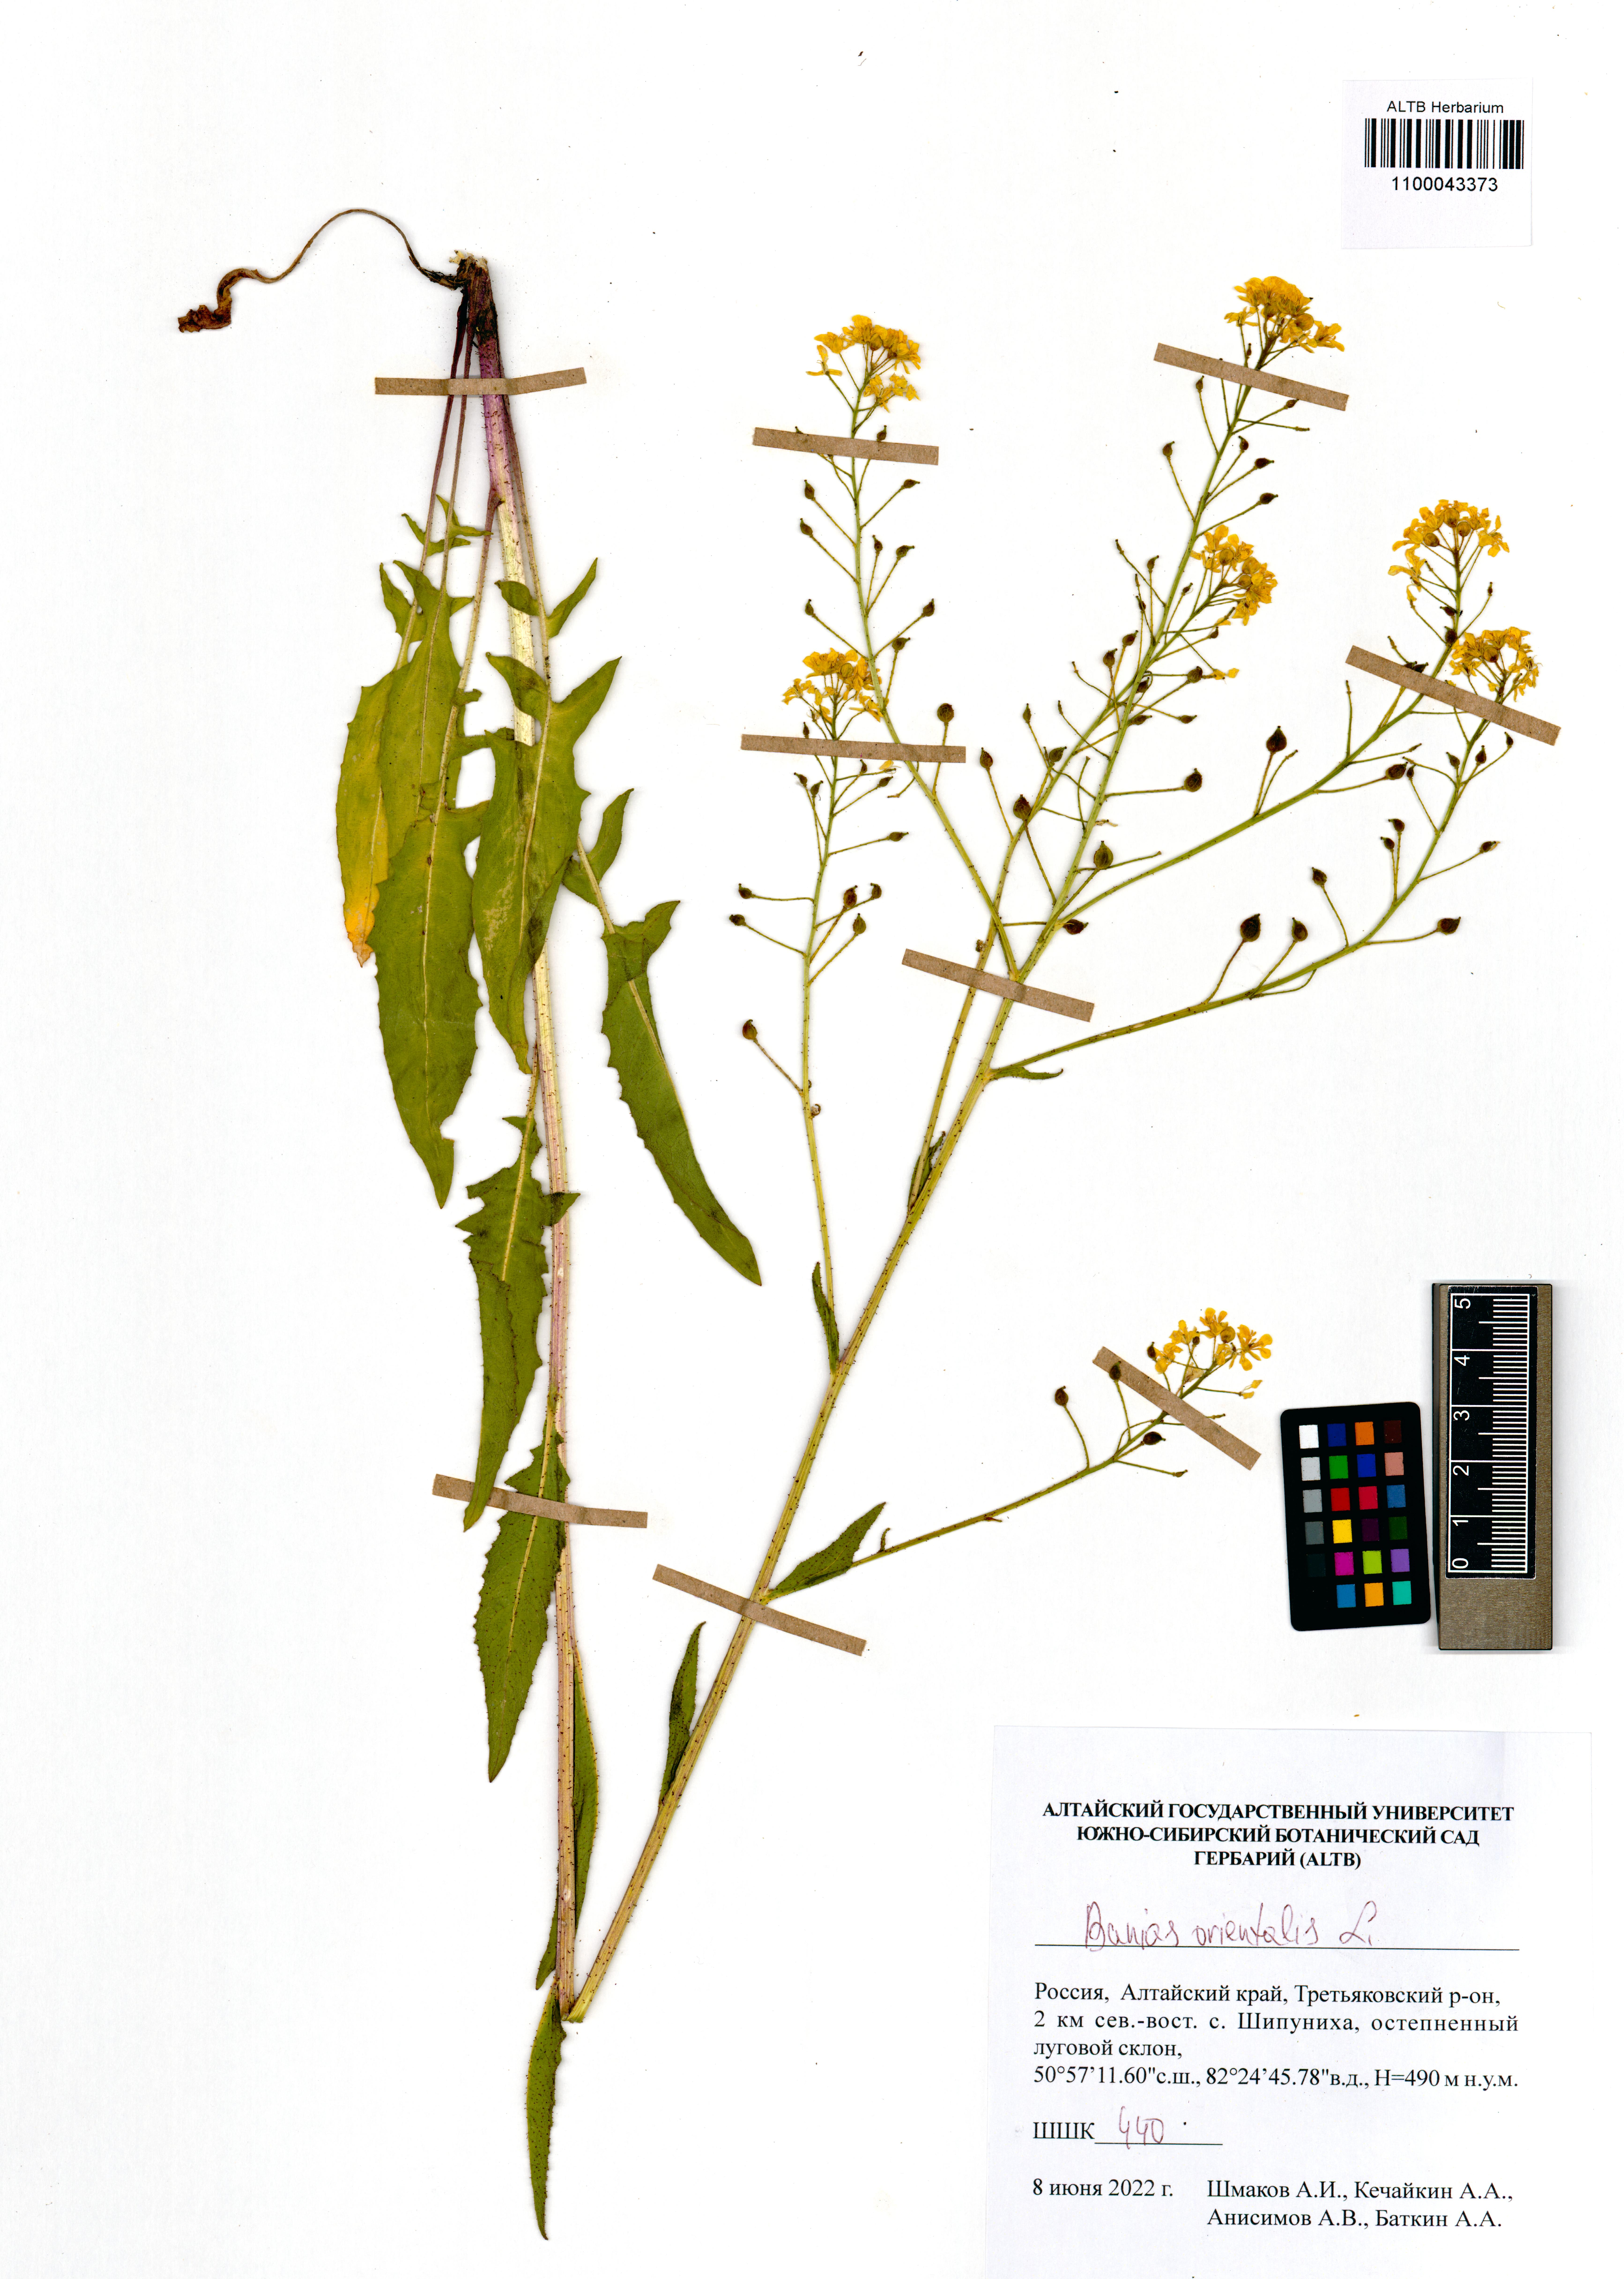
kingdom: Plantae
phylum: Tracheophyta
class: Magnoliopsida
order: Brassicales
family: Brassicaceae
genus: Bunias
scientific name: Bunias orientalis
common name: Warty-cabbage
